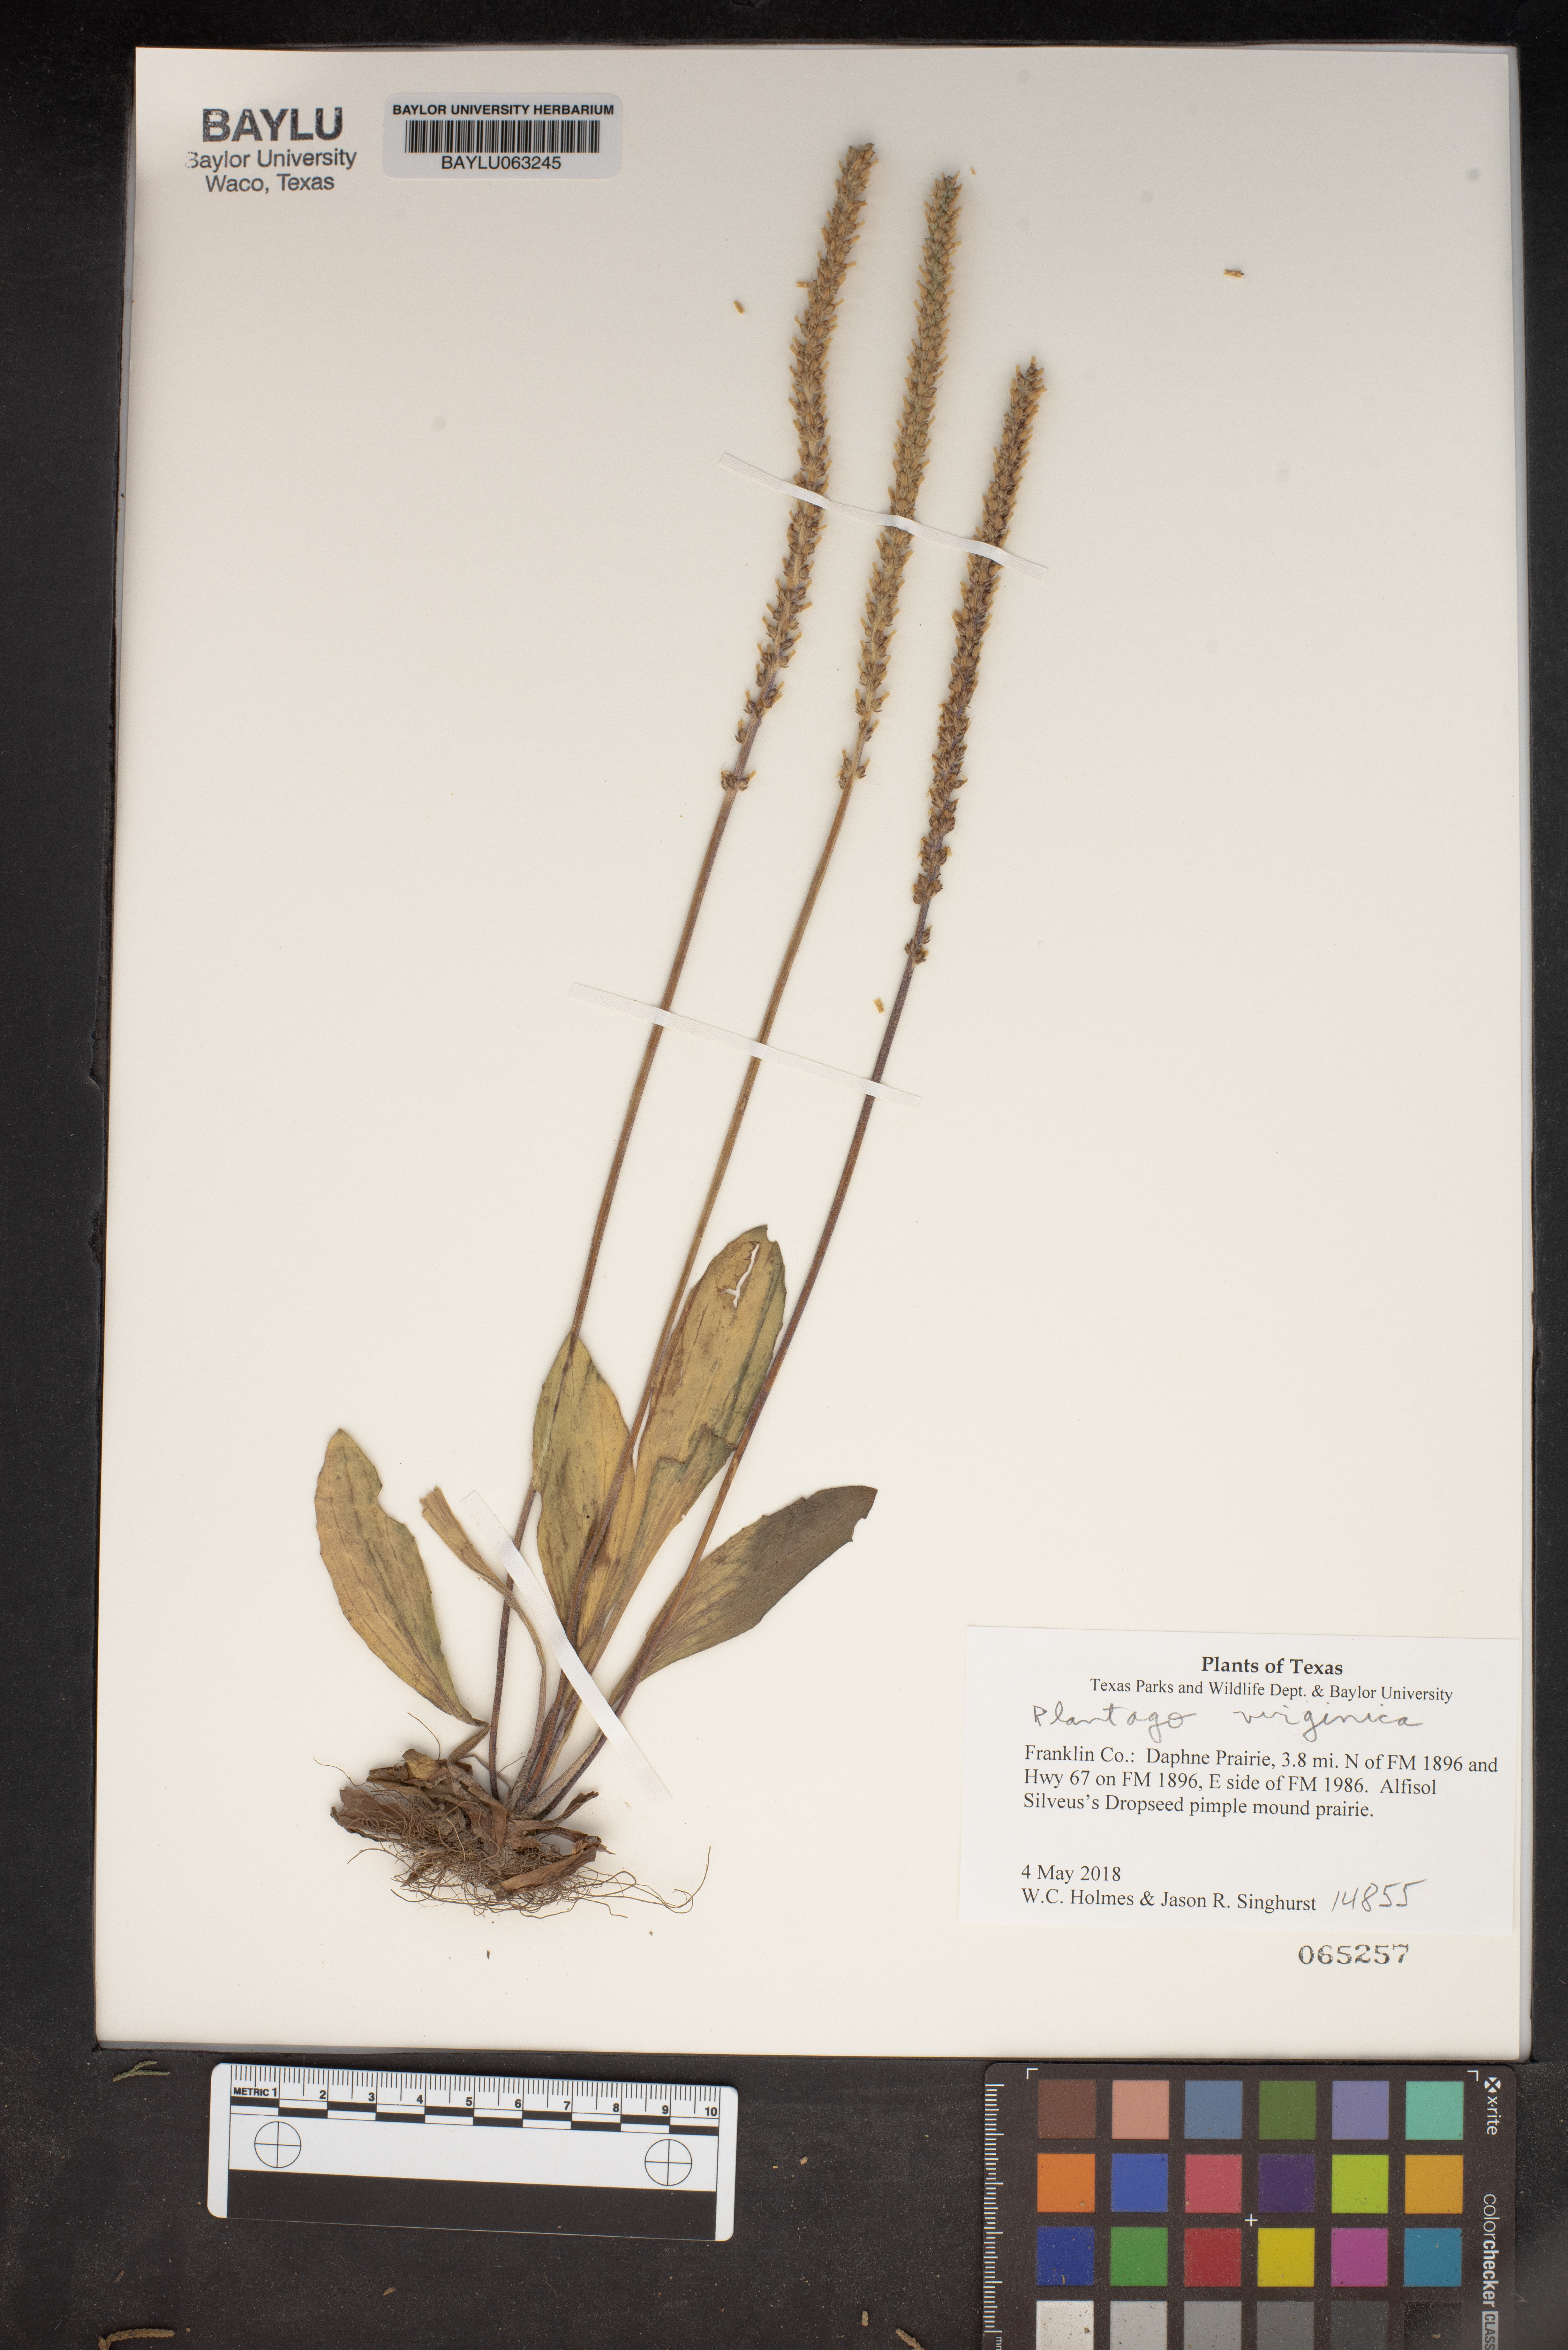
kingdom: Plantae
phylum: Tracheophyta
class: Magnoliopsida
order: Lamiales
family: Plantaginaceae
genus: Plantago
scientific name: Plantago virginica
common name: Hoary plantain
